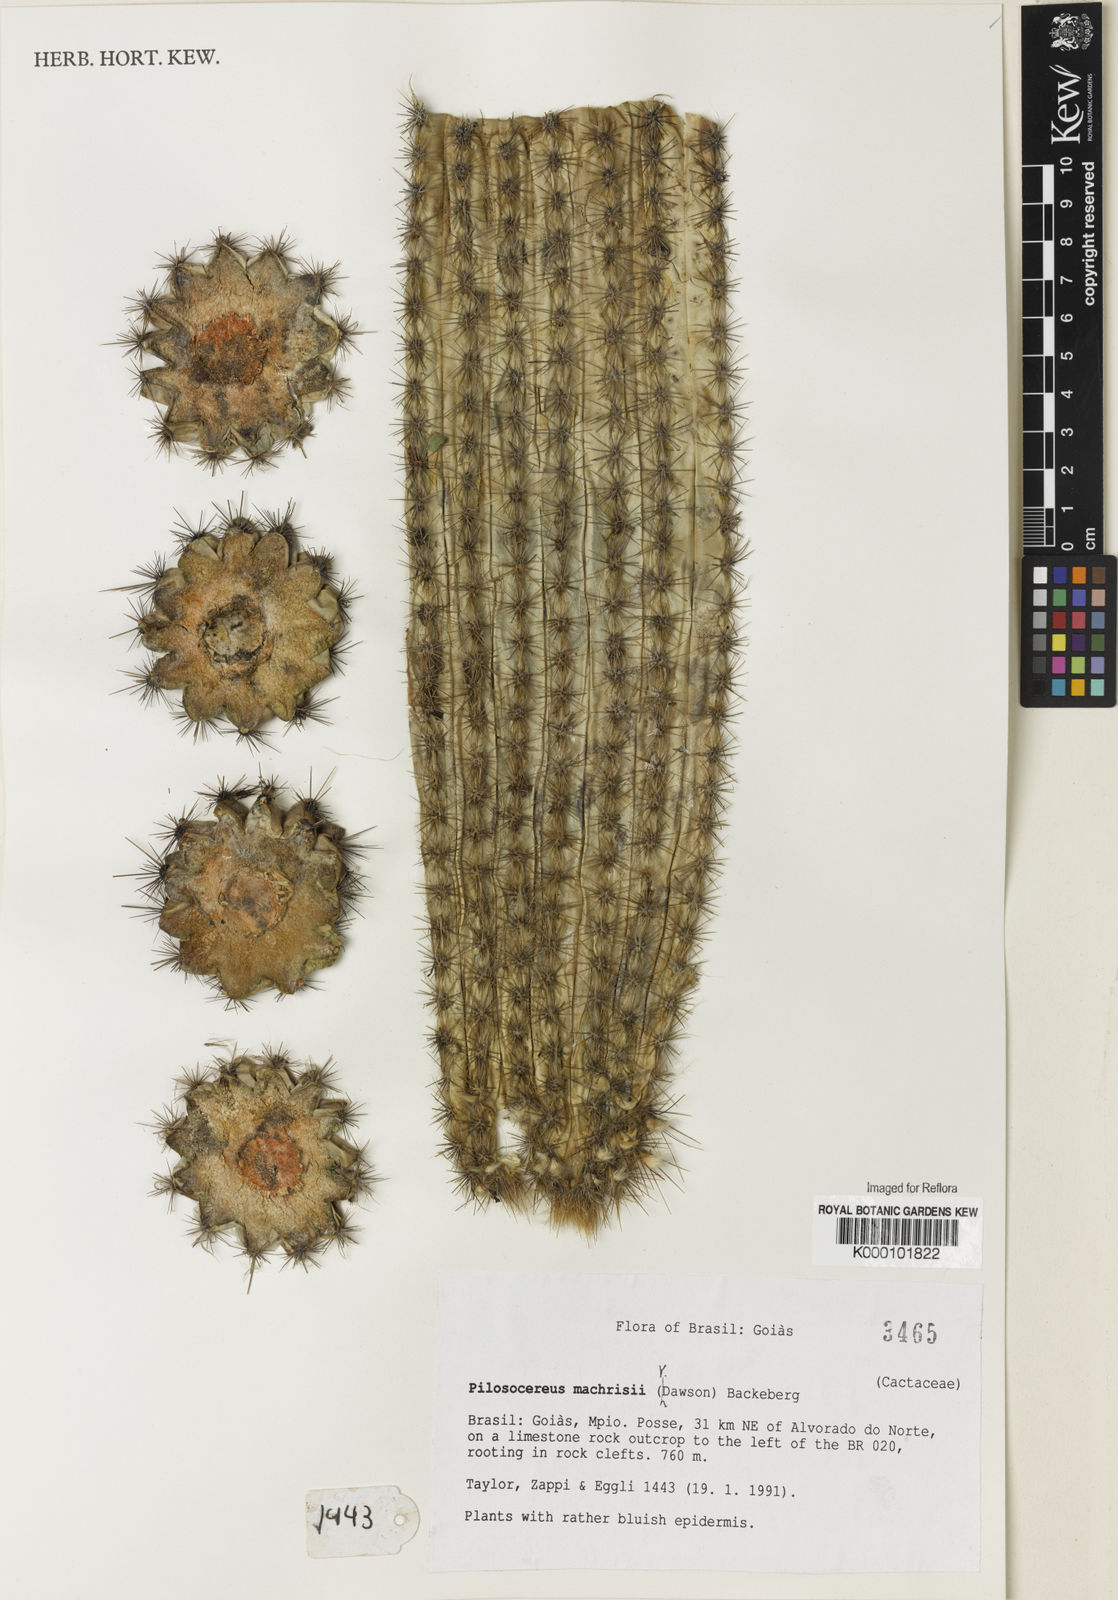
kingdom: Plantae
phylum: Tracheophyta
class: Magnoliopsida
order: Caryophyllales
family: Cactaceae
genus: Pilosocereus
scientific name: Pilosocereus machrisii
